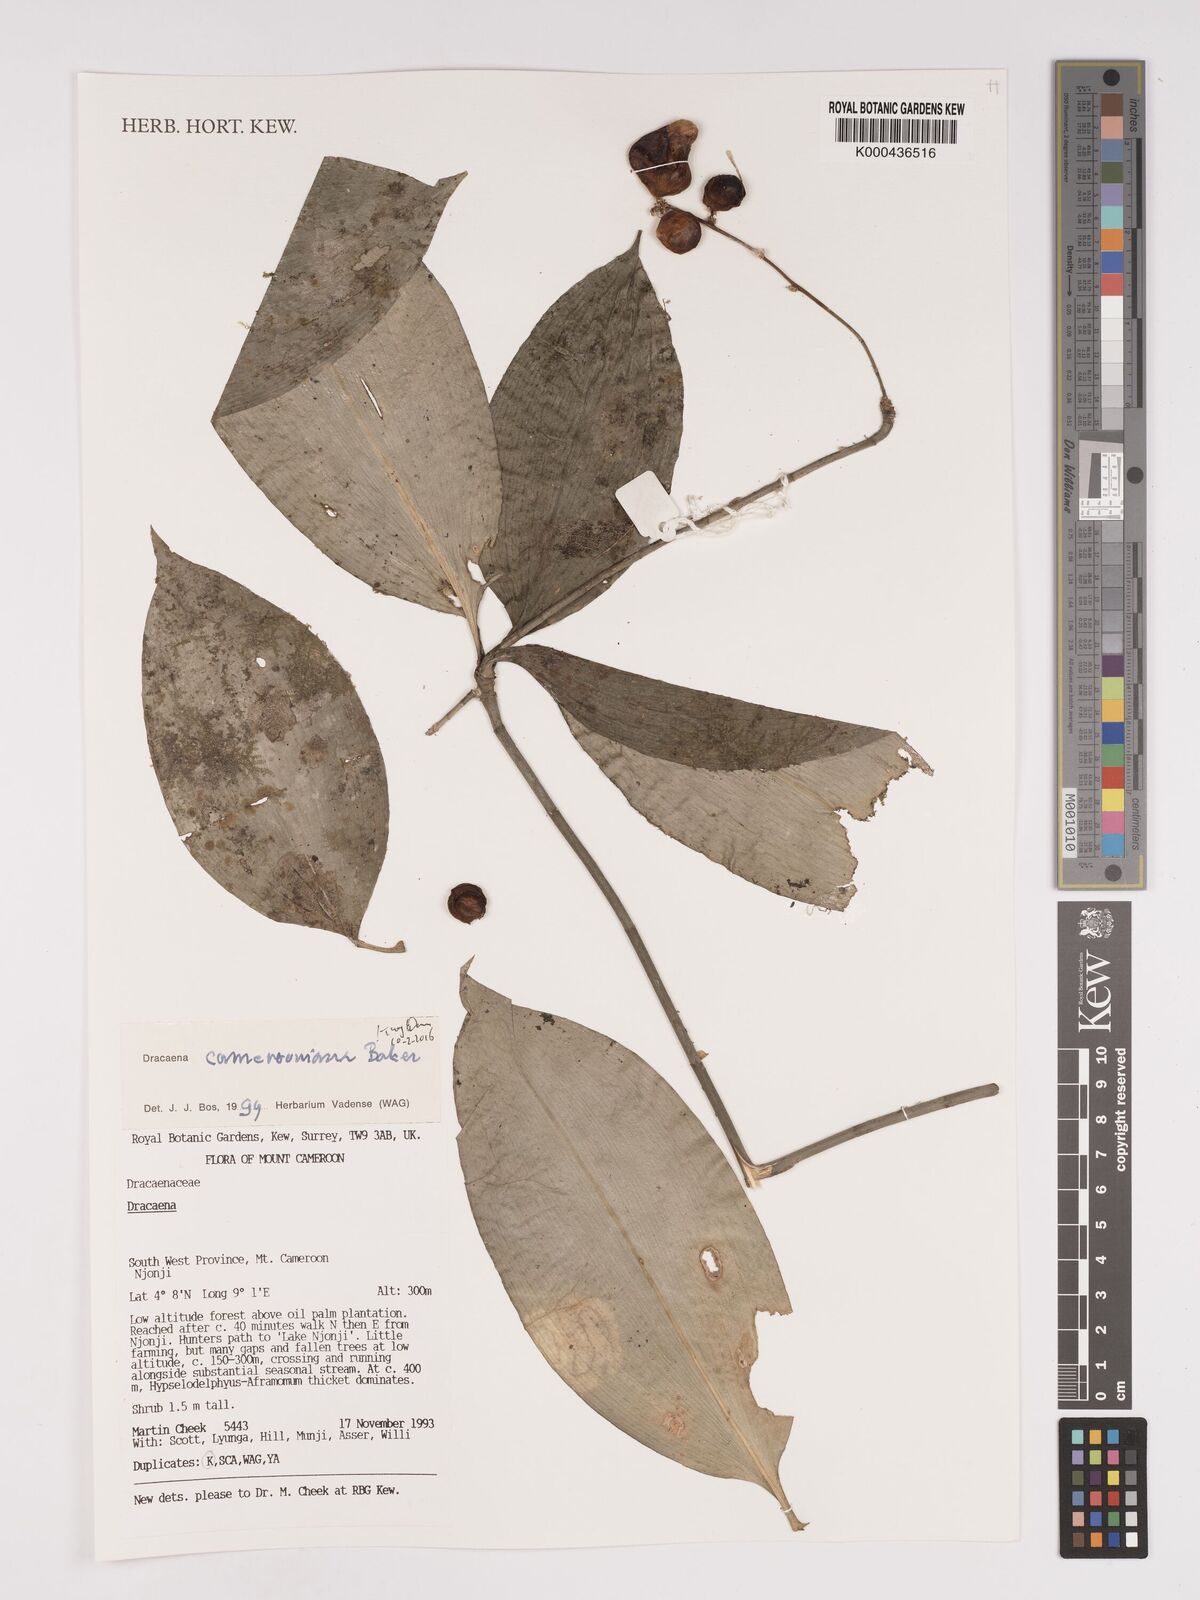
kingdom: Plantae
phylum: Tracheophyta
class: Liliopsida
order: Asparagales
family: Asparagaceae
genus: Dracaena
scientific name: Dracaena camerooniana
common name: Dragon tree
